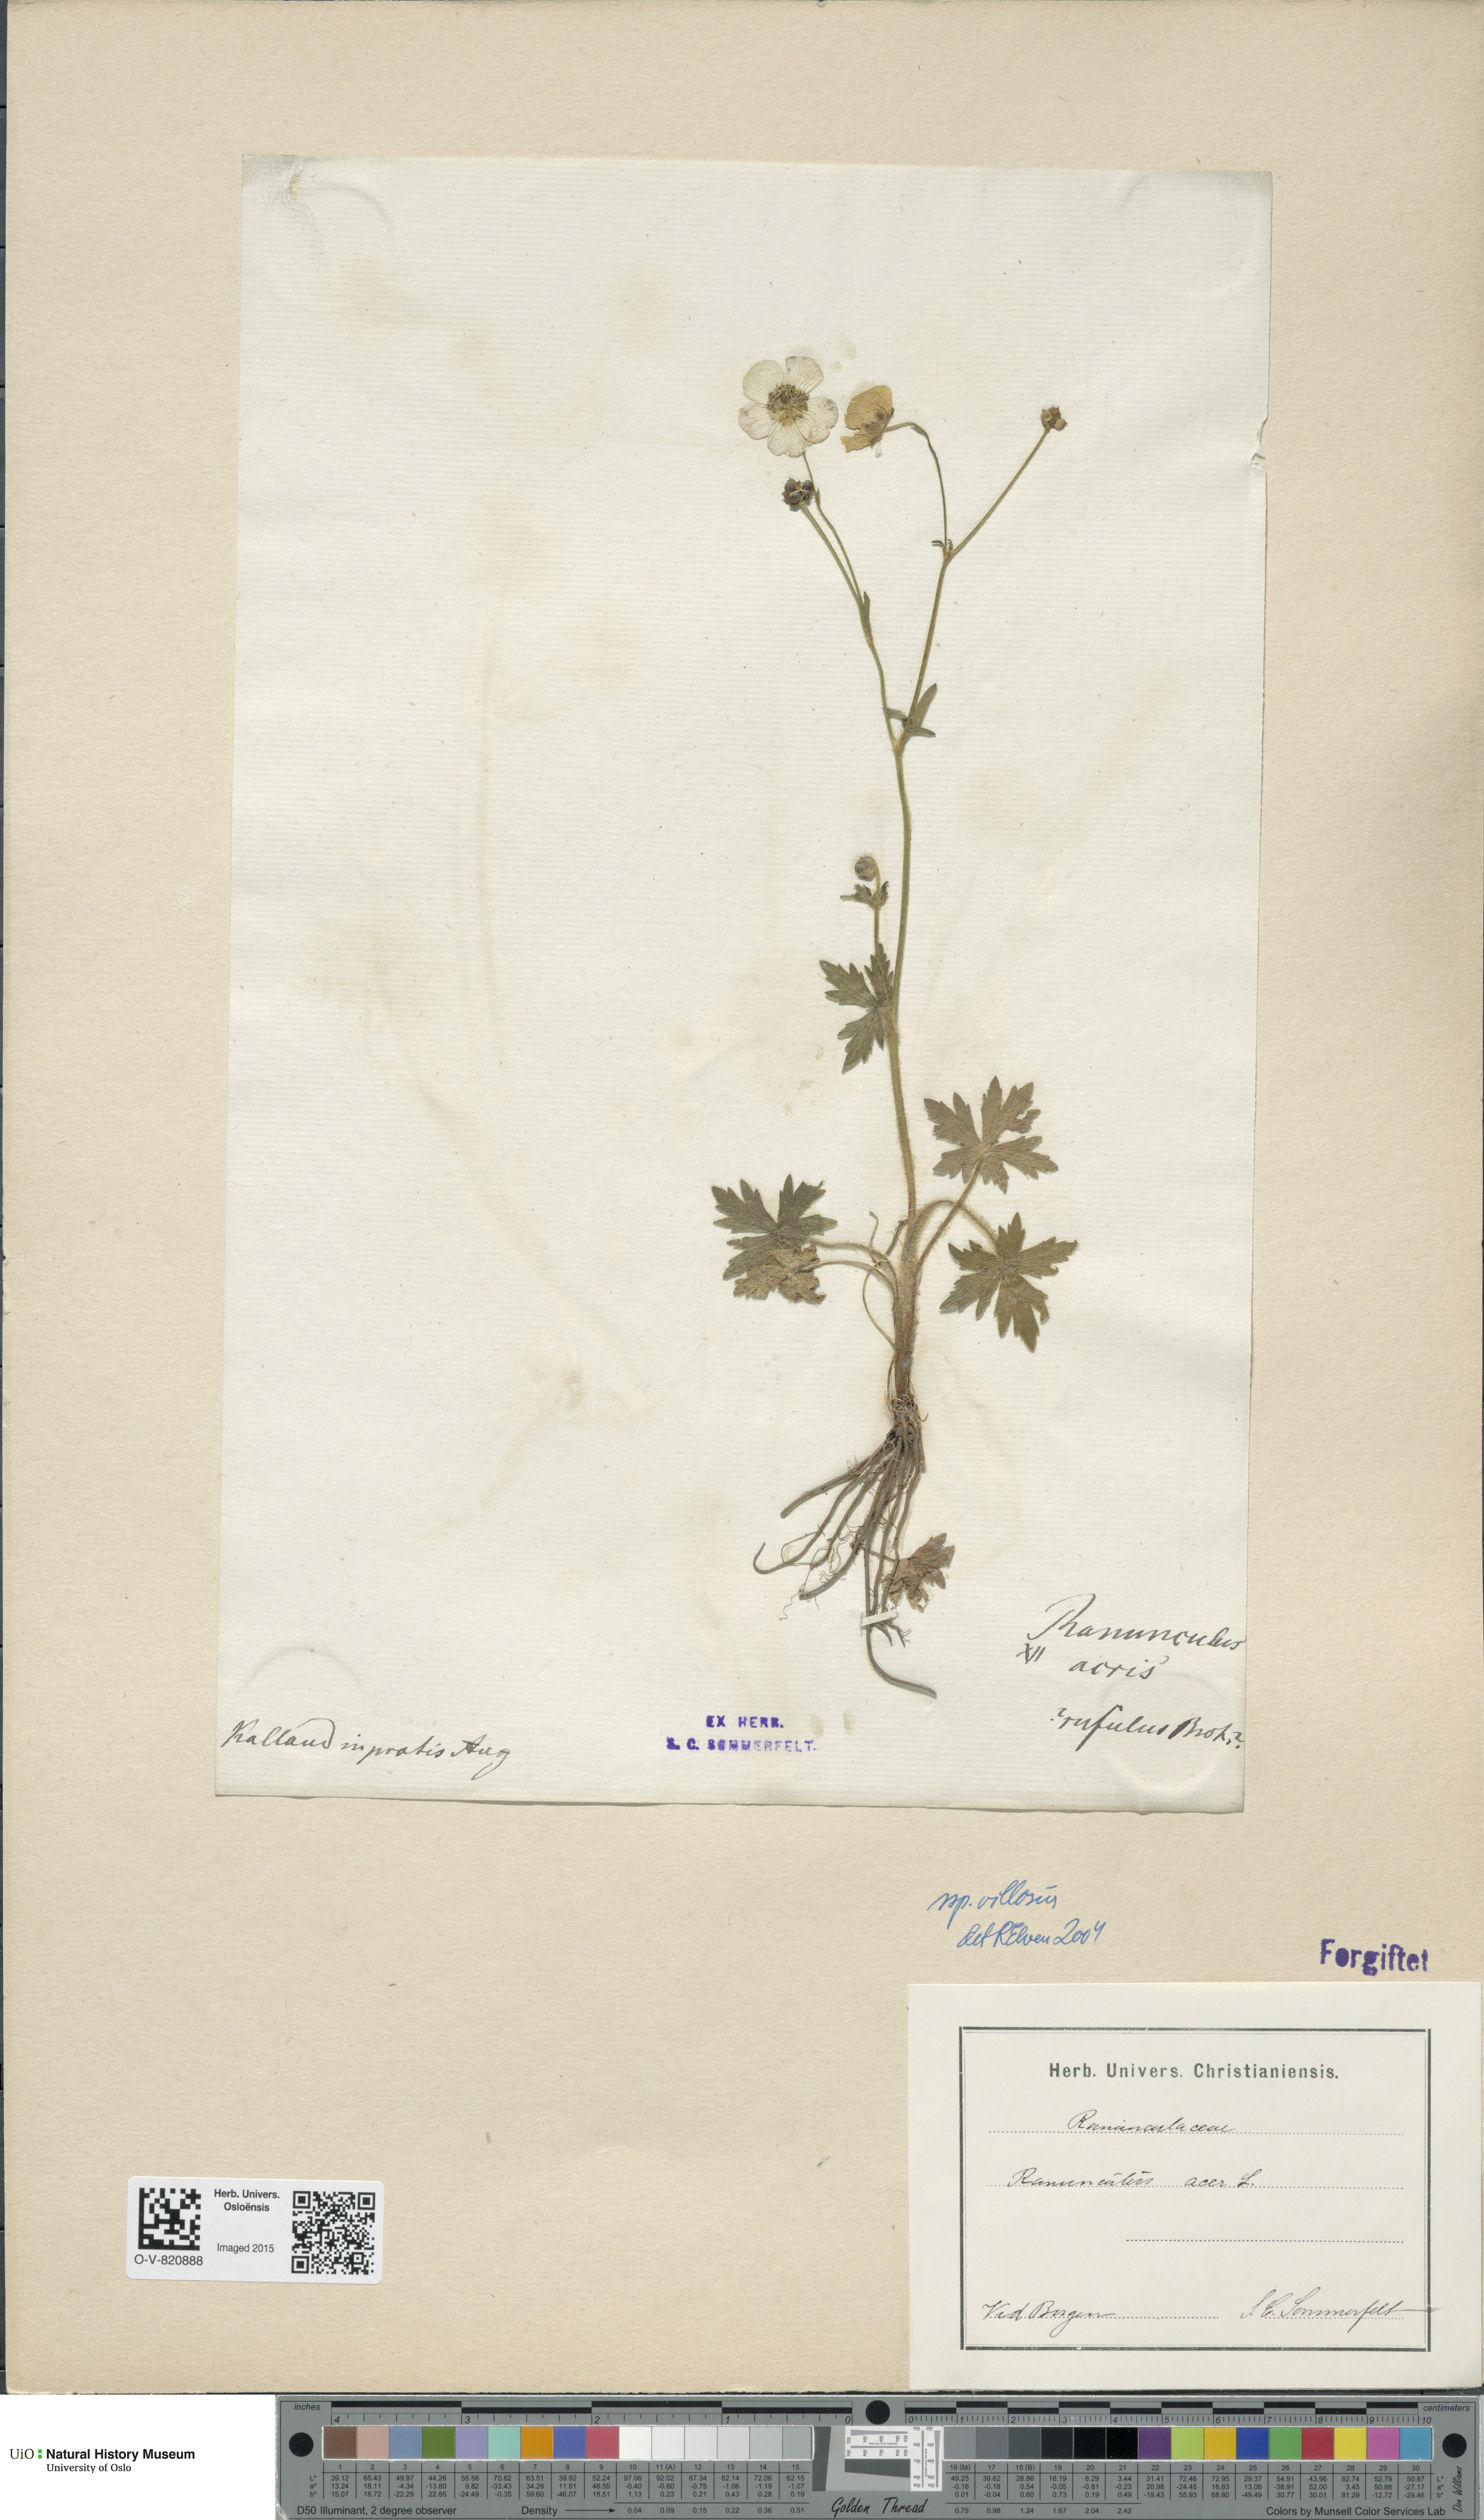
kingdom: Plantae
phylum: Tracheophyta
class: Magnoliopsida
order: Ranunculales
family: Ranunculaceae
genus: Ranunculus
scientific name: Ranunculus propinquus
